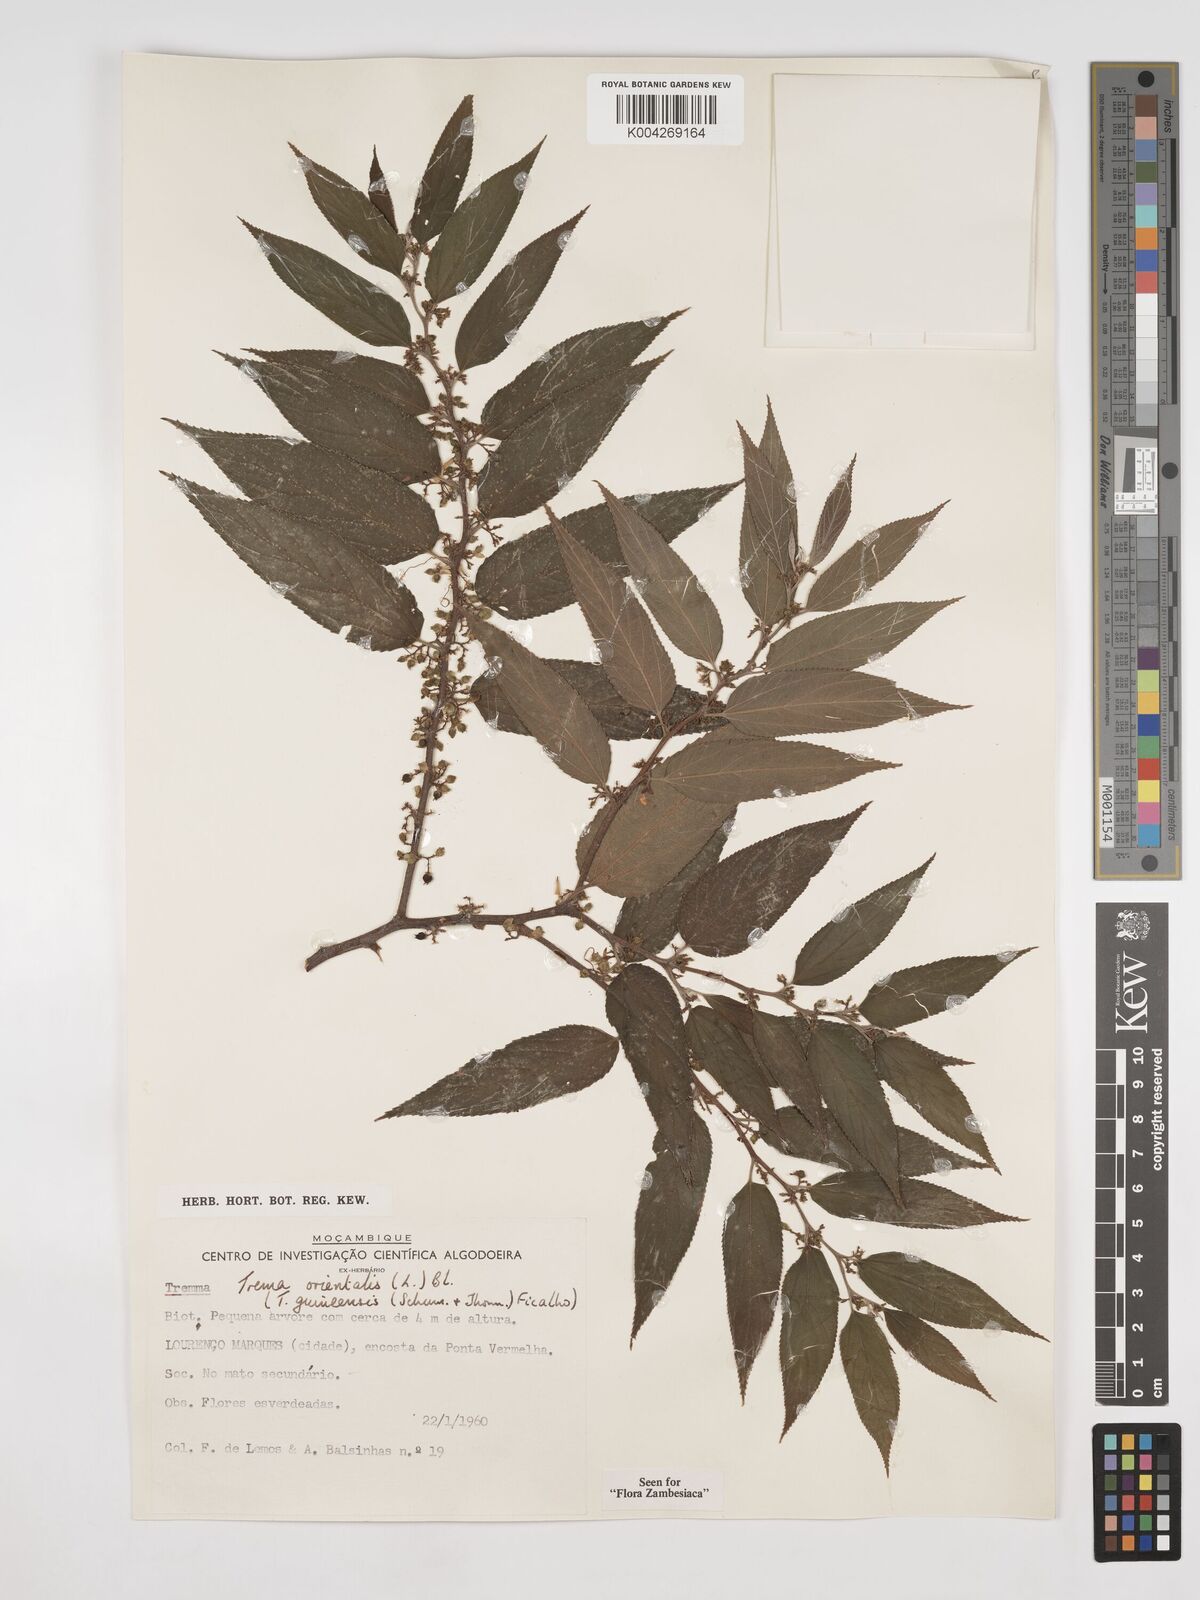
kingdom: Plantae
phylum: Tracheophyta
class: Magnoliopsida
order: Rosales
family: Cannabaceae
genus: Trema
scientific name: Trema orientale
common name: Indian charcoal tree
